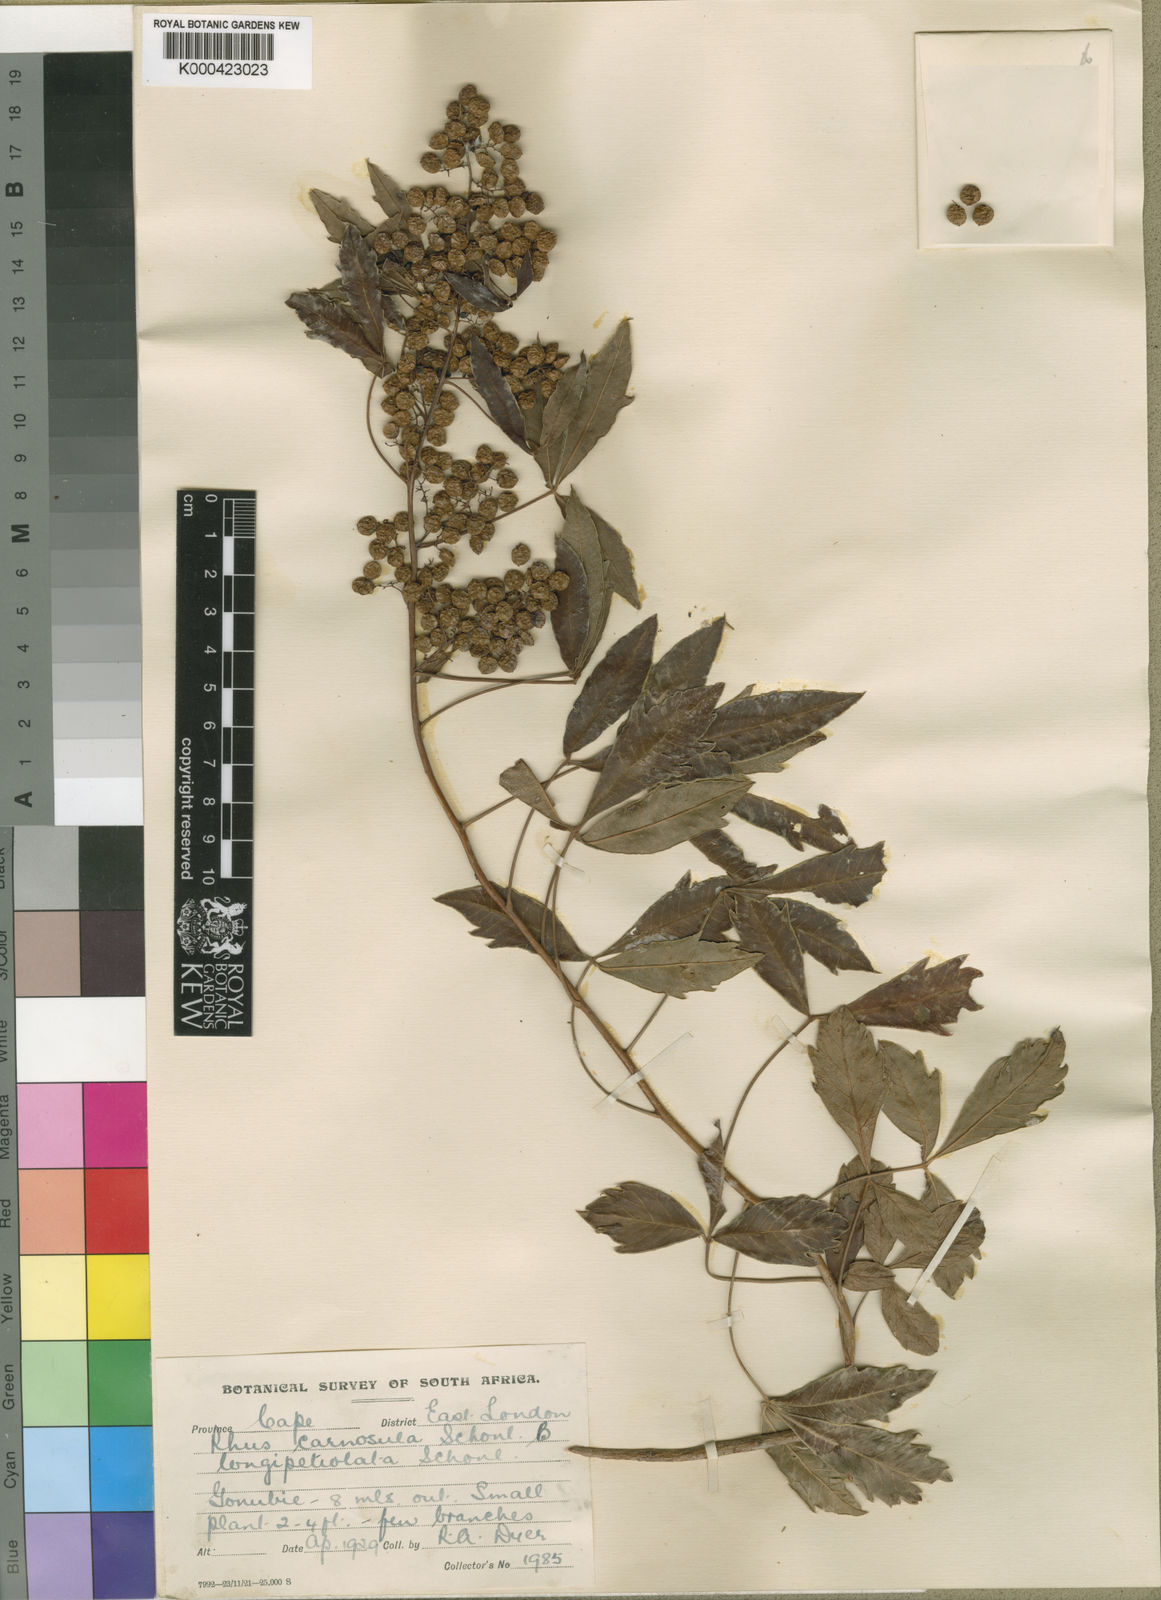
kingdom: Plantae
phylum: Tracheophyta
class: Magnoliopsida
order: Sapindales
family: Anacardiaceae
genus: Rhus
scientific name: Rhus
